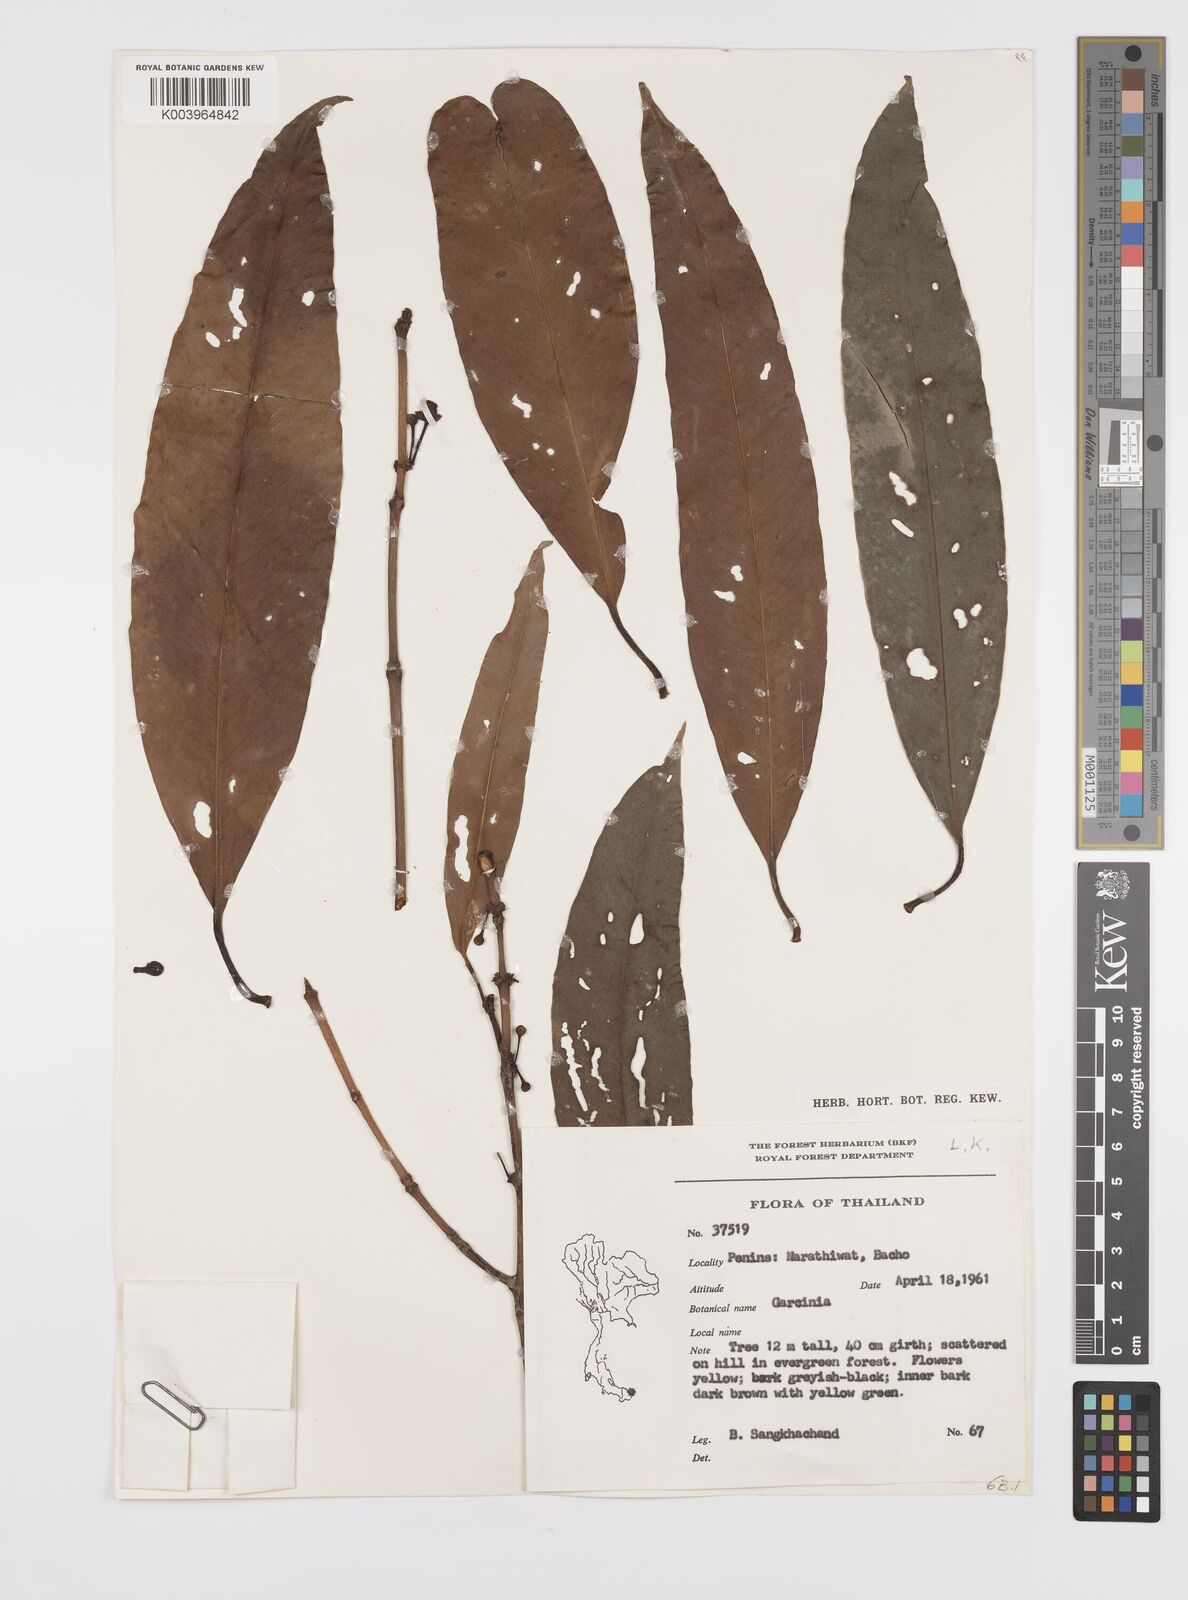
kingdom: Plantae
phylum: Tracheophyta
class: Magnoliopsida
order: Malpighiales
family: Clusiaceae
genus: Garcinia
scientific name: Garcinia
